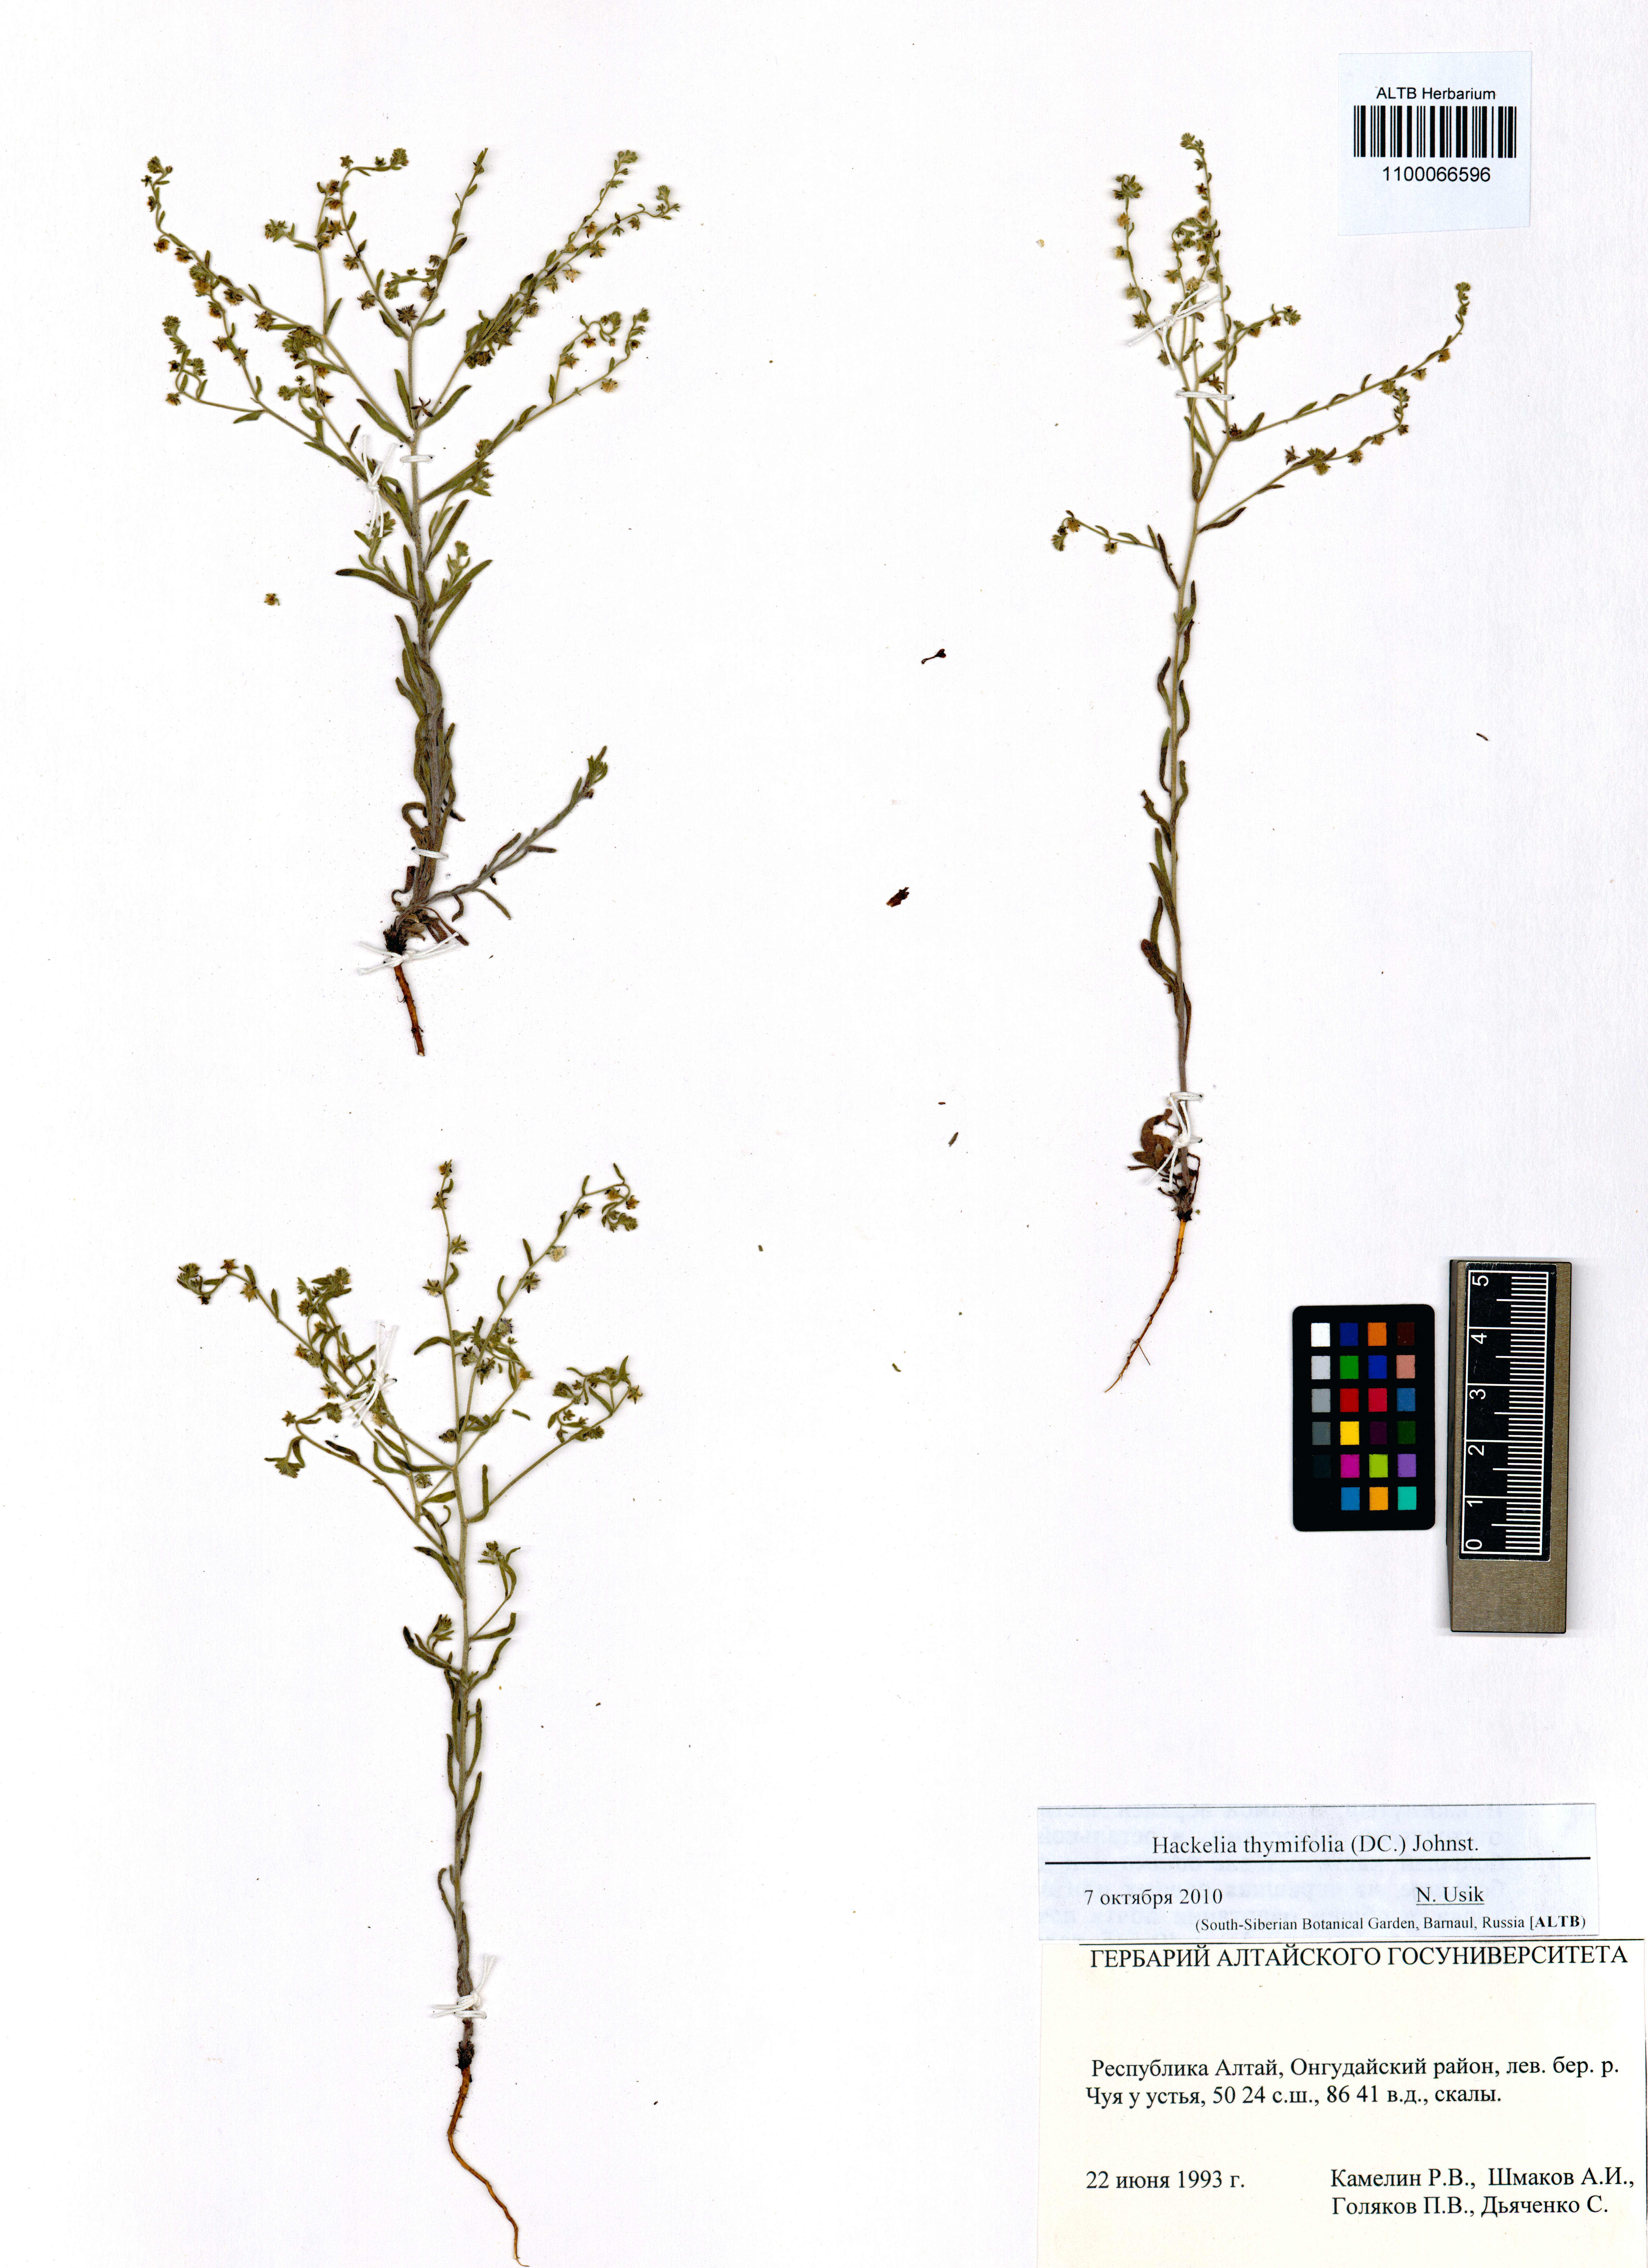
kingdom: Plantae
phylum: Tracheophyta
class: Magnoliopsida
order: Boraginales
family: Boraginaceae
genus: Eritrichium
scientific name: Eritrichium thymifolium
